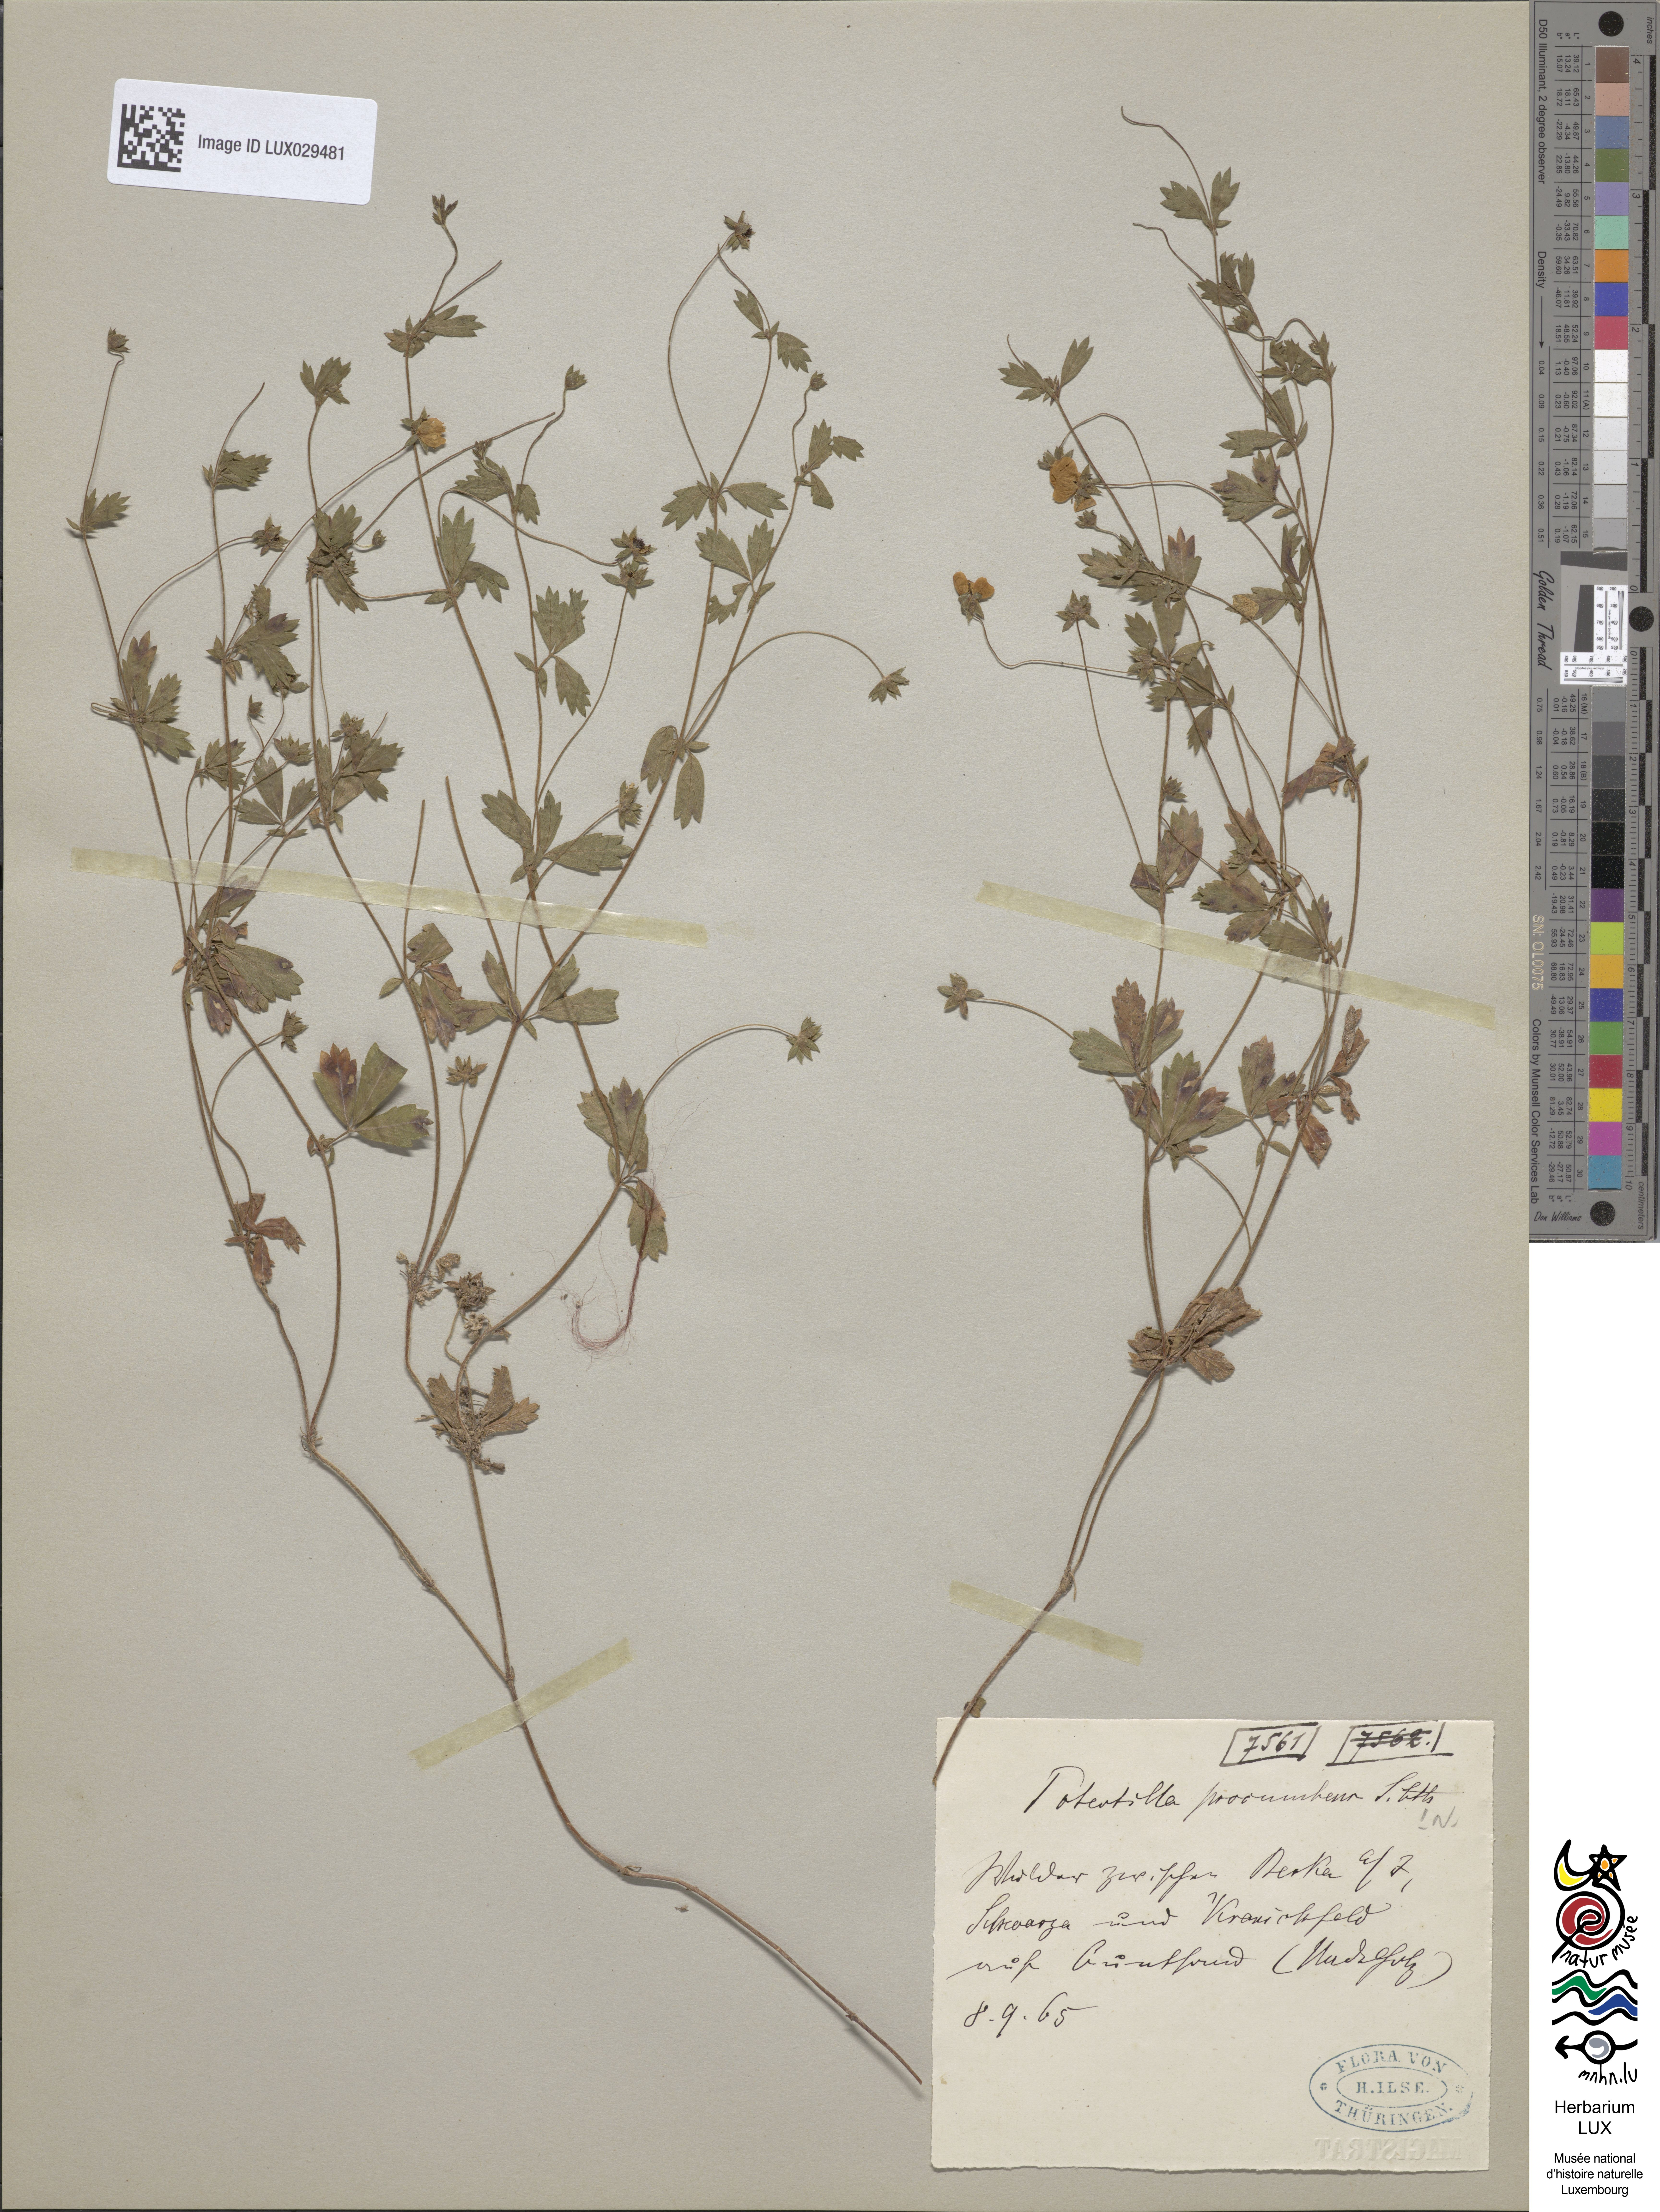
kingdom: Plantae
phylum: Tracheophyta
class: Magnoliopsida
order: Rosales
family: Rosaceae
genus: Potentilla
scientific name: Potentilla anglica
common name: Trailing tormentil
